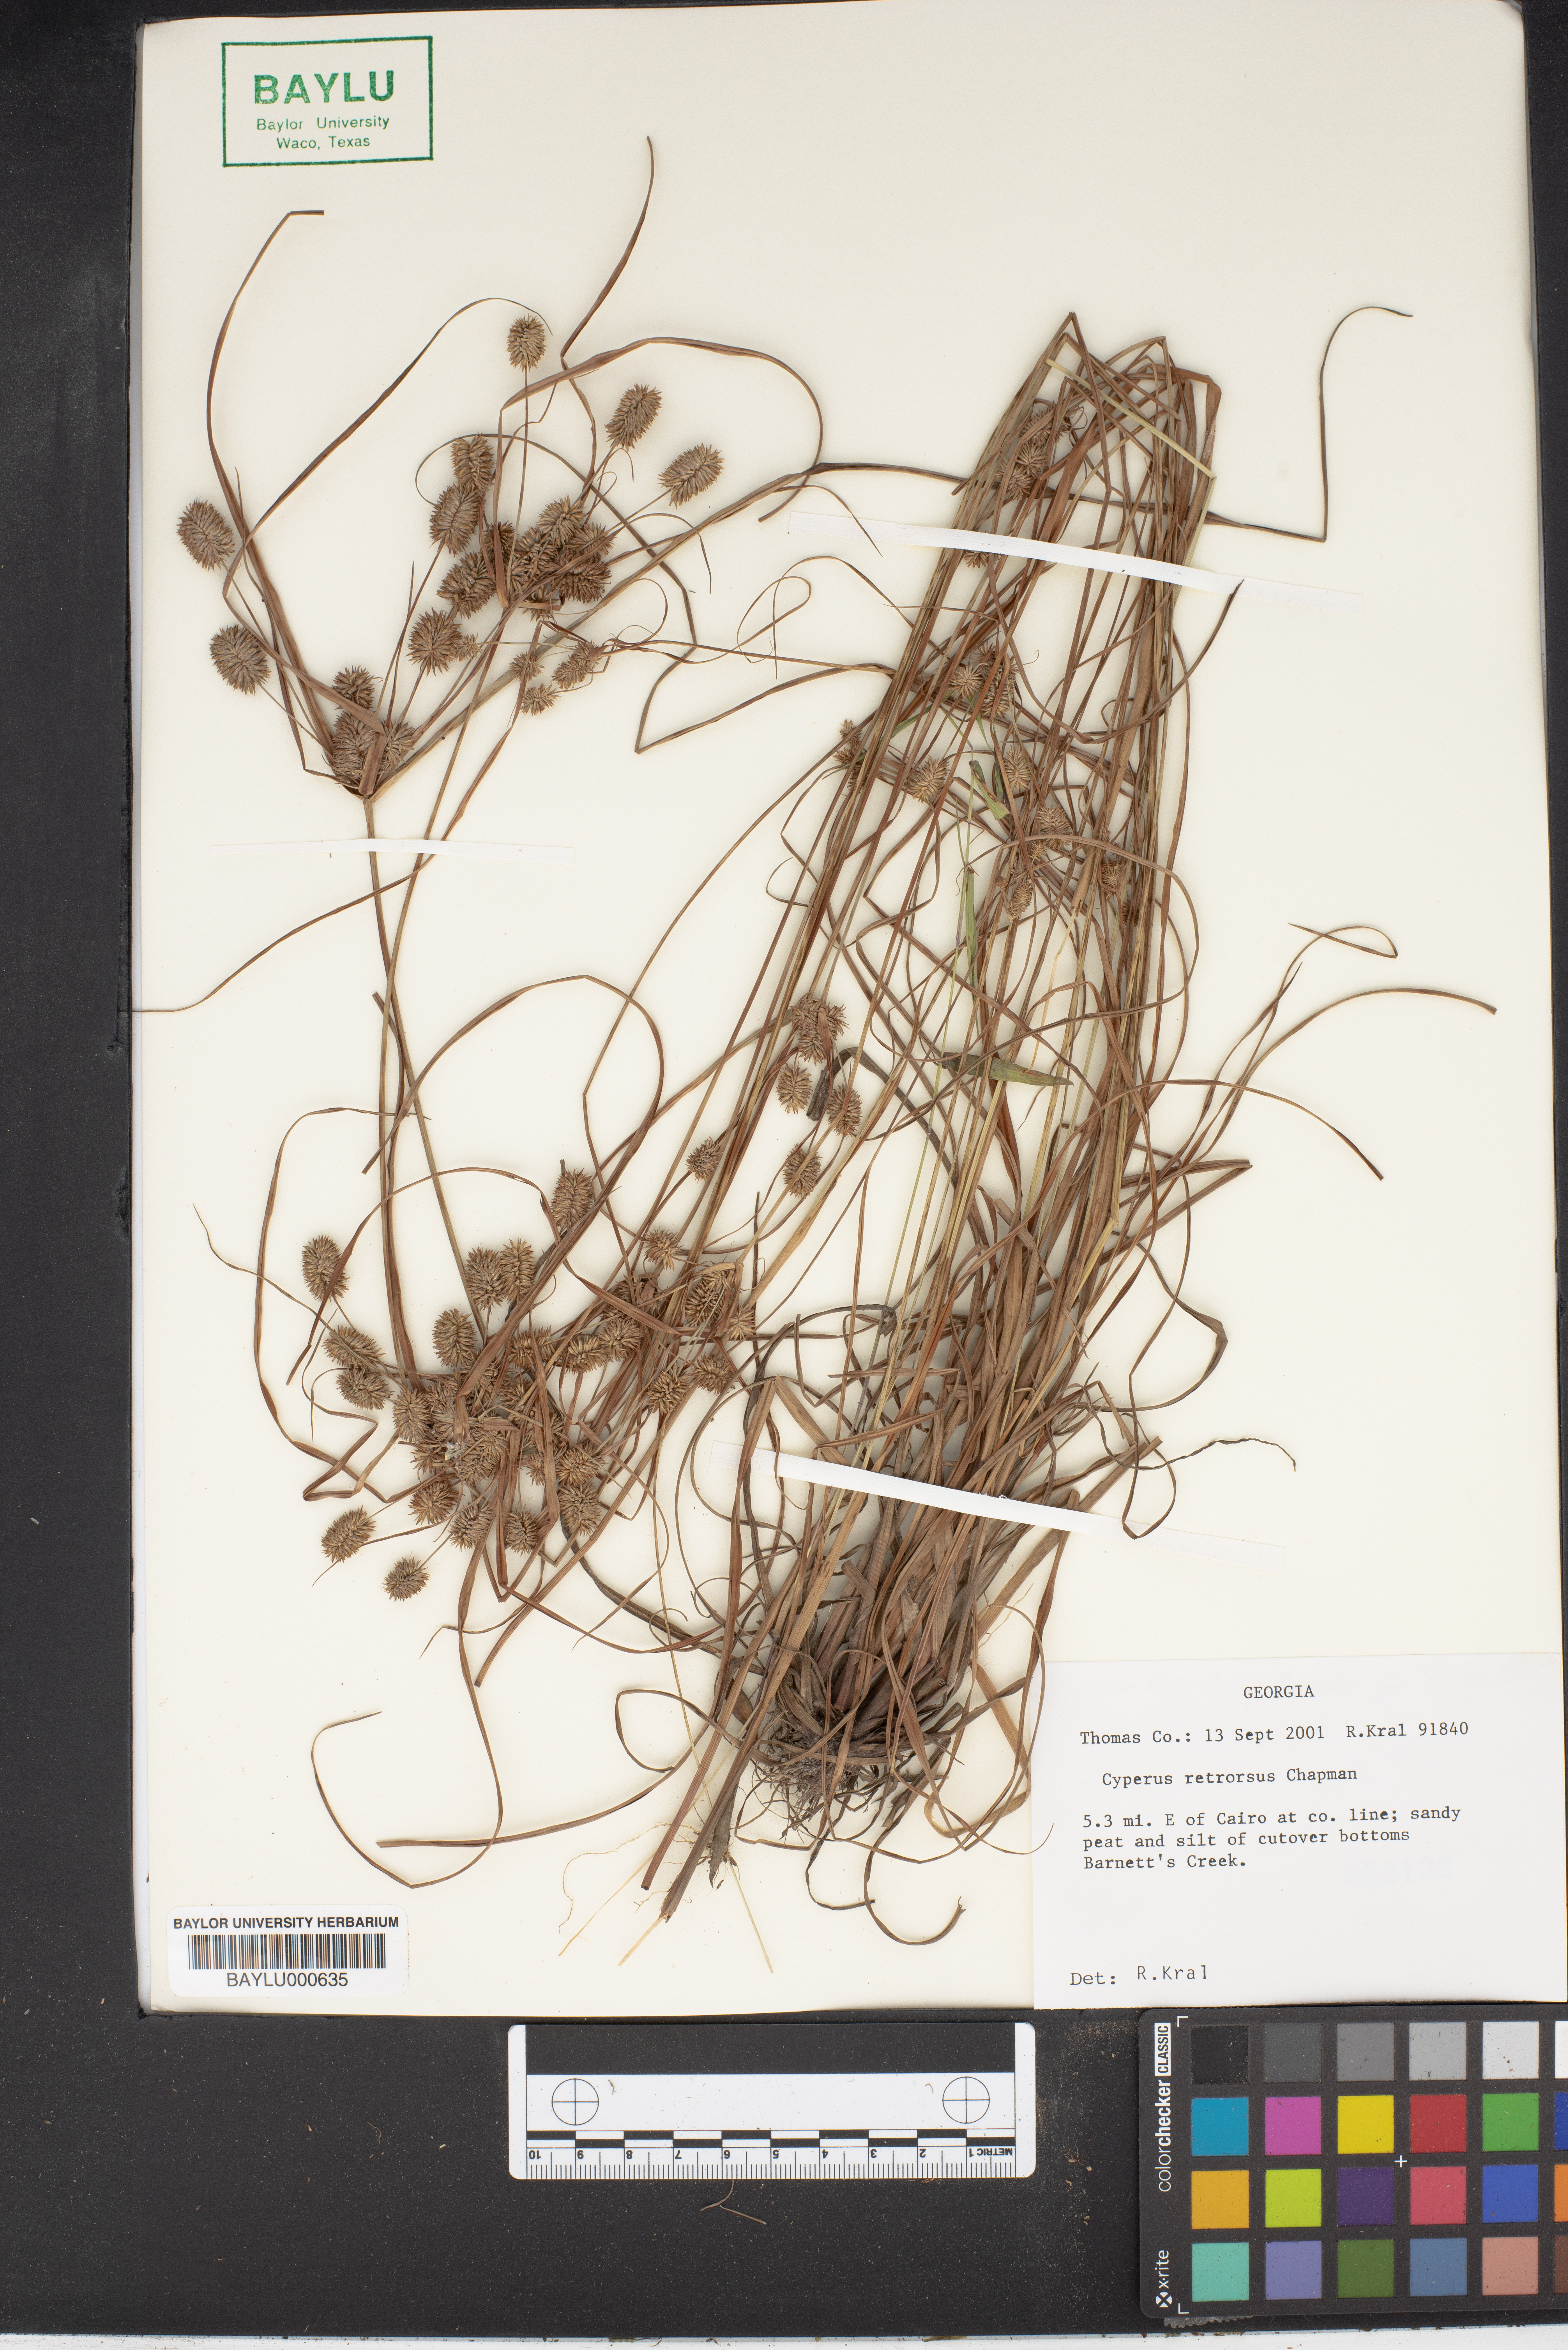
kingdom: Plantae
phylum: Tracheophyta
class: Liliopsida
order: Poales
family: Cyperaceae
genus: Cyperus
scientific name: Cyperus retrorsus
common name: Pinebarren flat sedge
